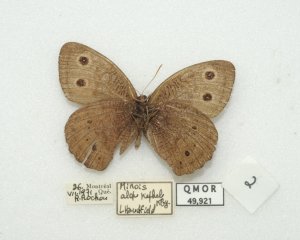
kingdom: Animalia
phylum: Arthropoda
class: Insecta
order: Lepidoptera
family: Nymphalidae
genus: Cercyonis
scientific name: Cercyonis pegala
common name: Common Wood-Nymph
